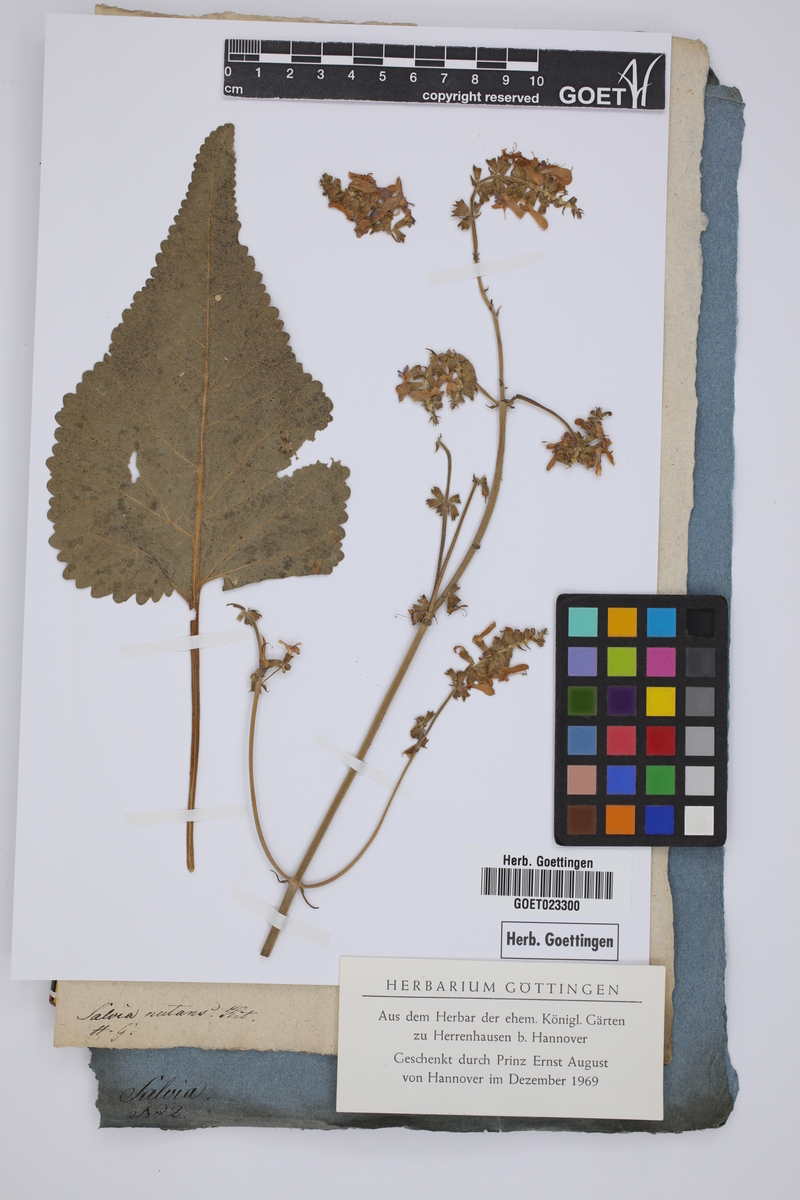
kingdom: Plantae
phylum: Tracheophyta
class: Magnoliopsida
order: Lamiales
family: Lamiaceae
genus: Salvia
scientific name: Salvia nutans
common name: Nodding sage
